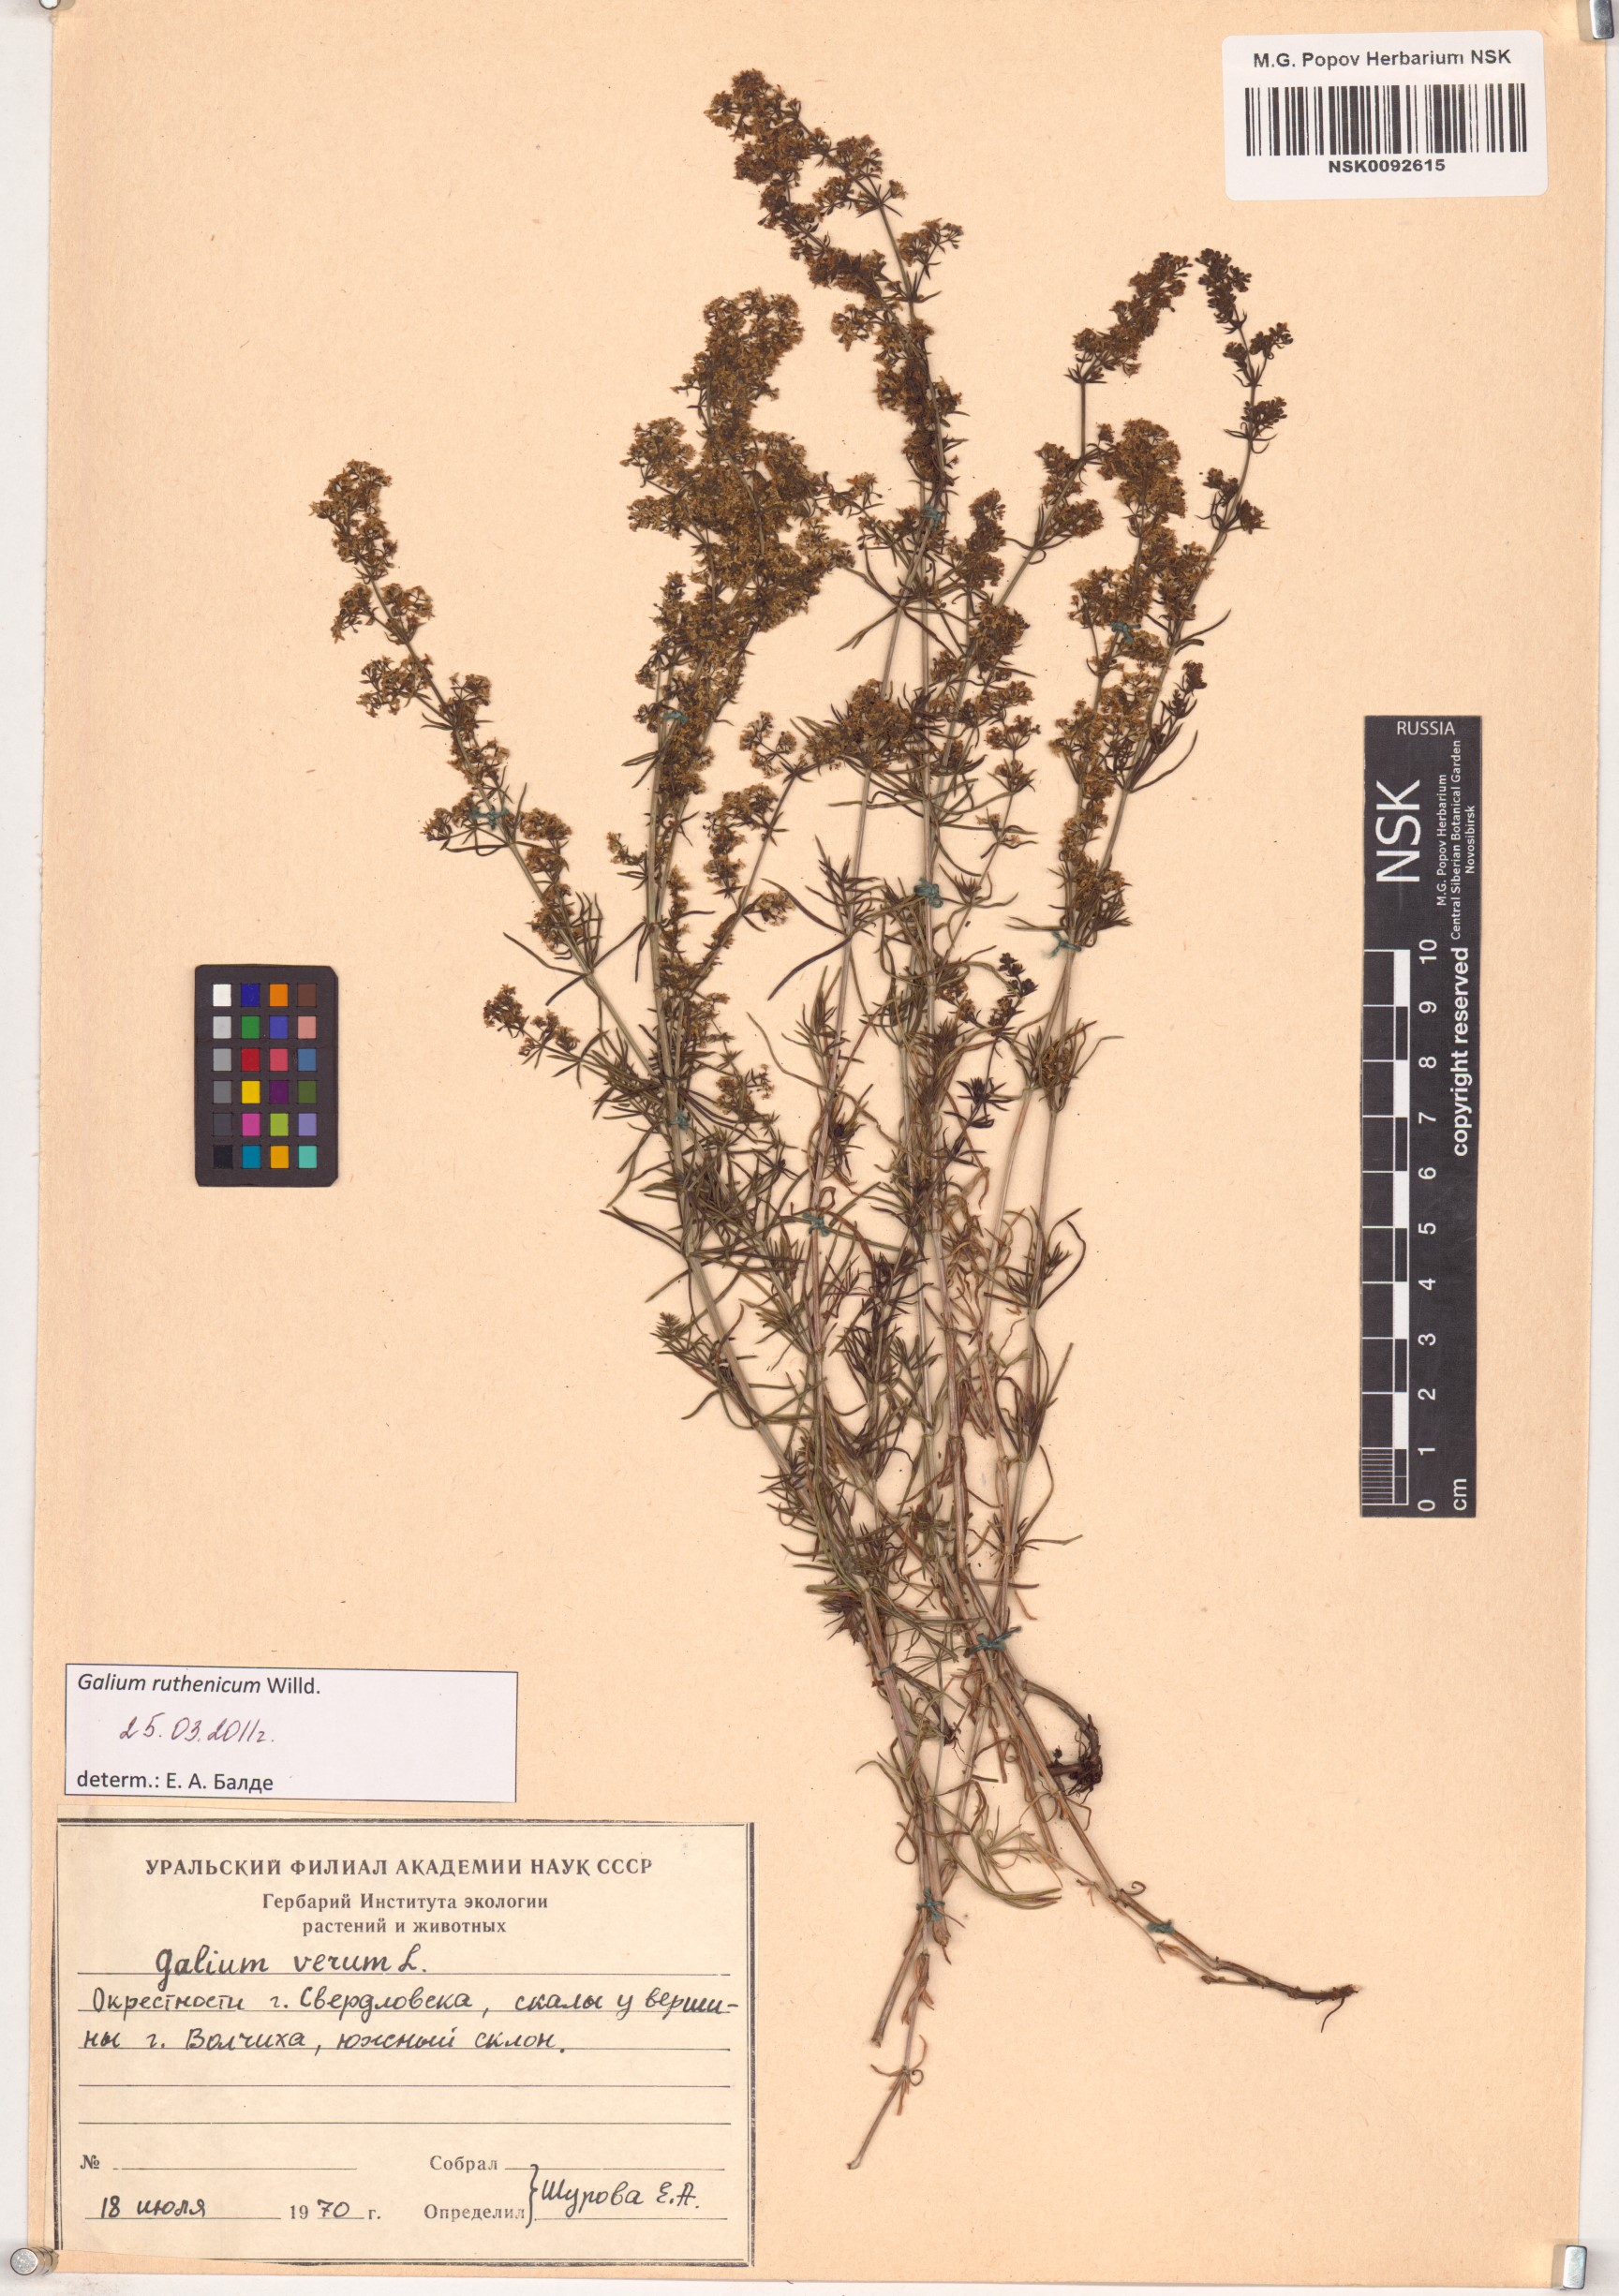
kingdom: Plantae
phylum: Tracheophyta
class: Magnoliopsida
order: Gentianales
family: Rubiaceae
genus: Galium
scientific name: Galium verum
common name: Lady's bedstraw
